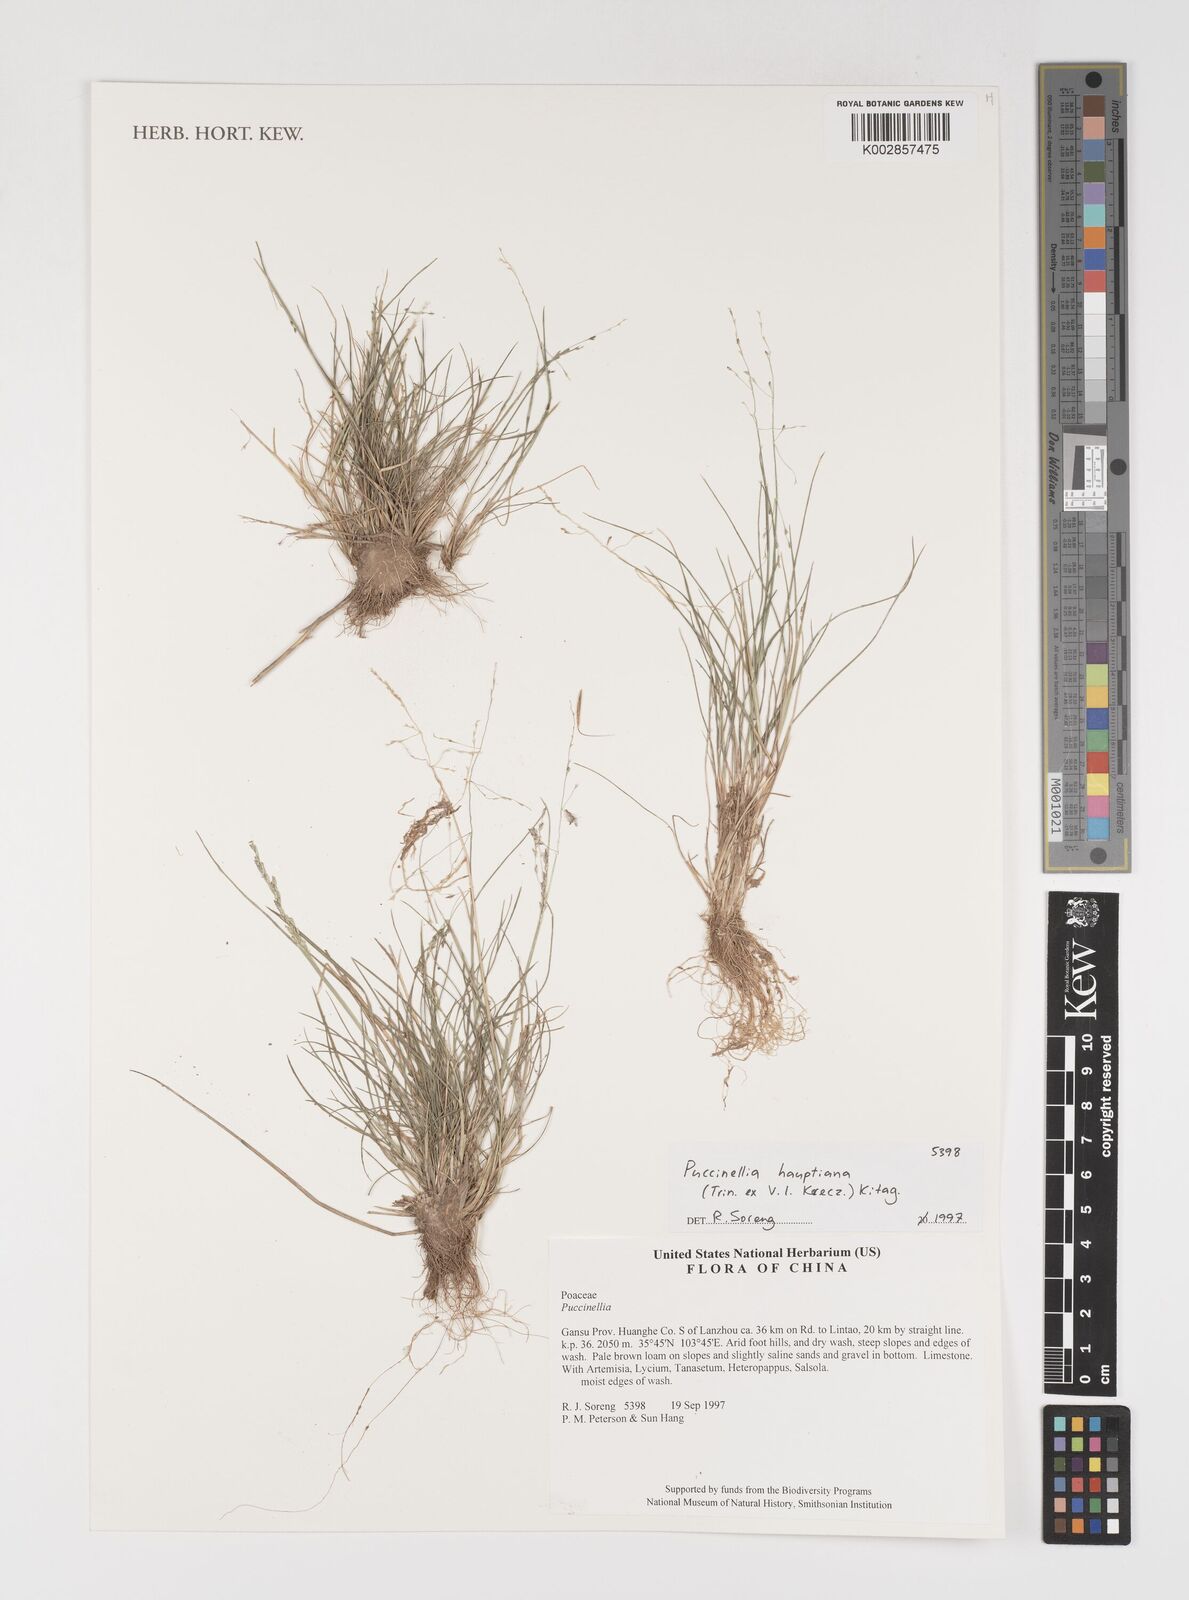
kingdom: Plantae
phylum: Tracheophyta
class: Liliopsida
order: Poales
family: Poaceae
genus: Puccinellia
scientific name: Puccinellia distans
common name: Weeping alkaligrass
